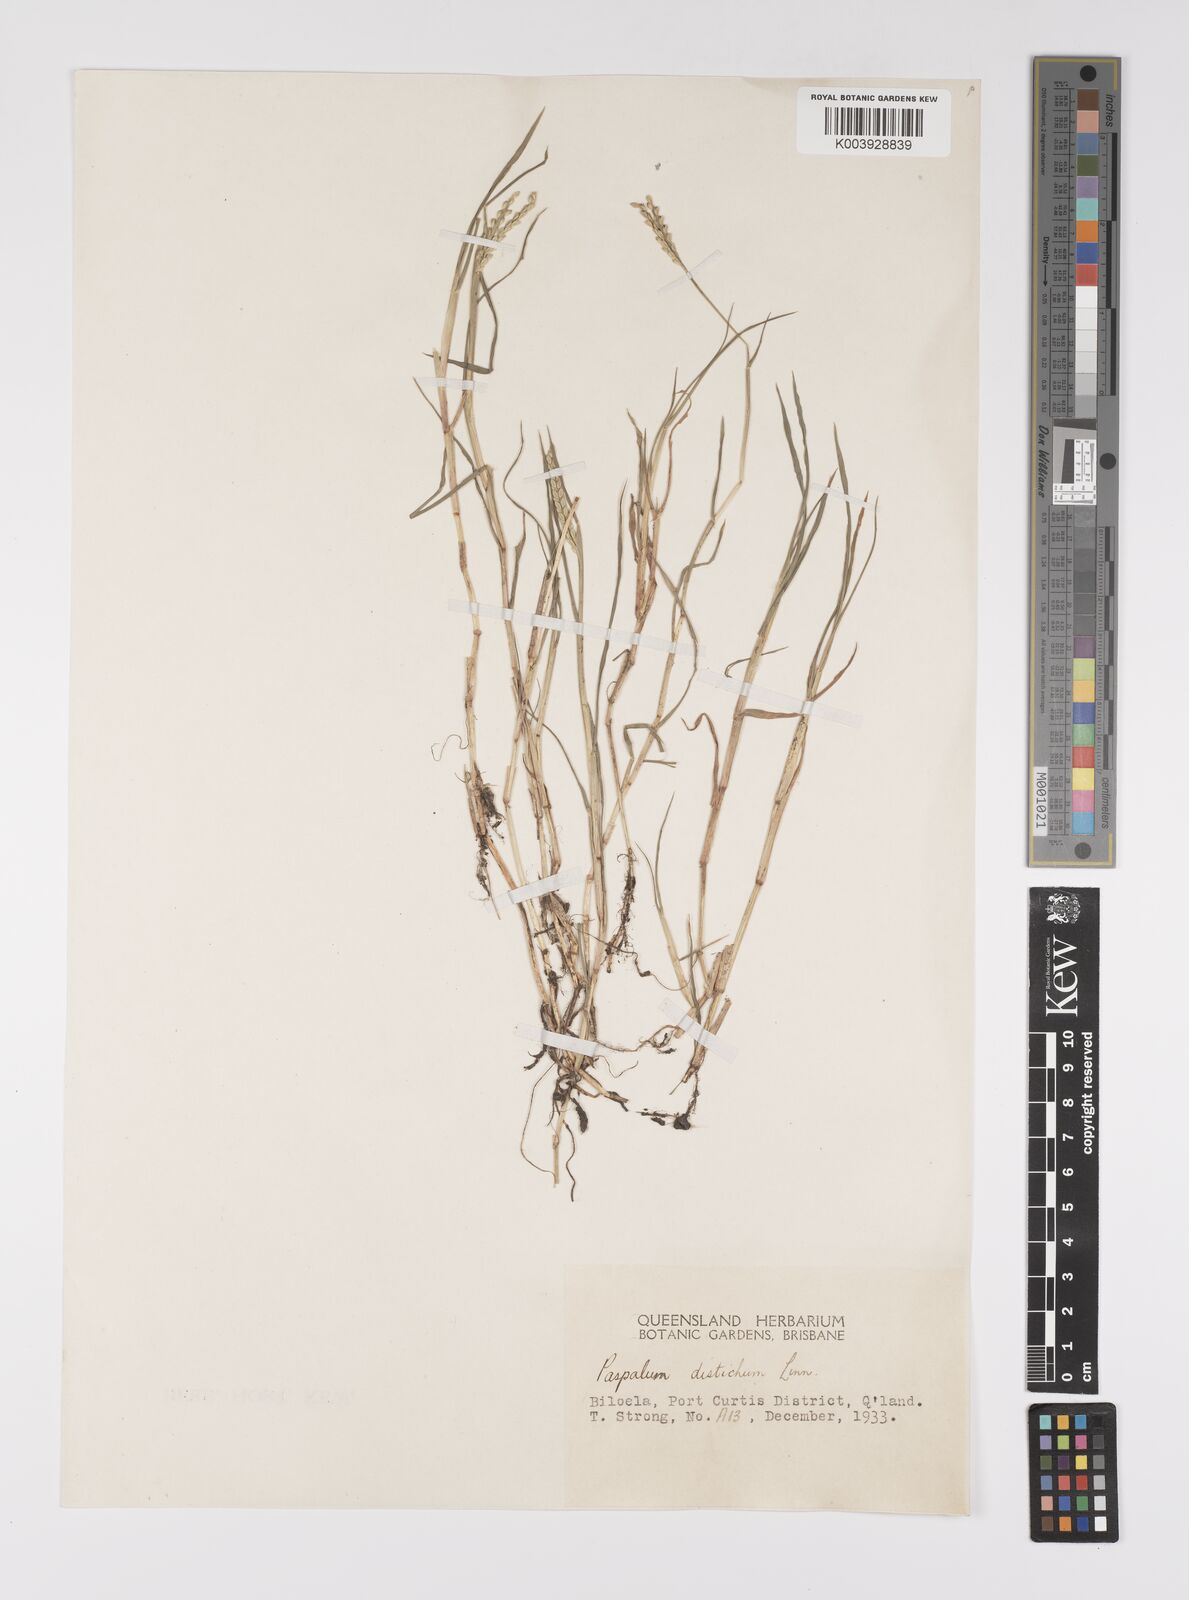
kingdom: Plantae
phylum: Tracheophyta
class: Liliopsida
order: Poales
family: Poaceae
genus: Paspalum
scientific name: Paspalum distichum
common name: Knotgrass
